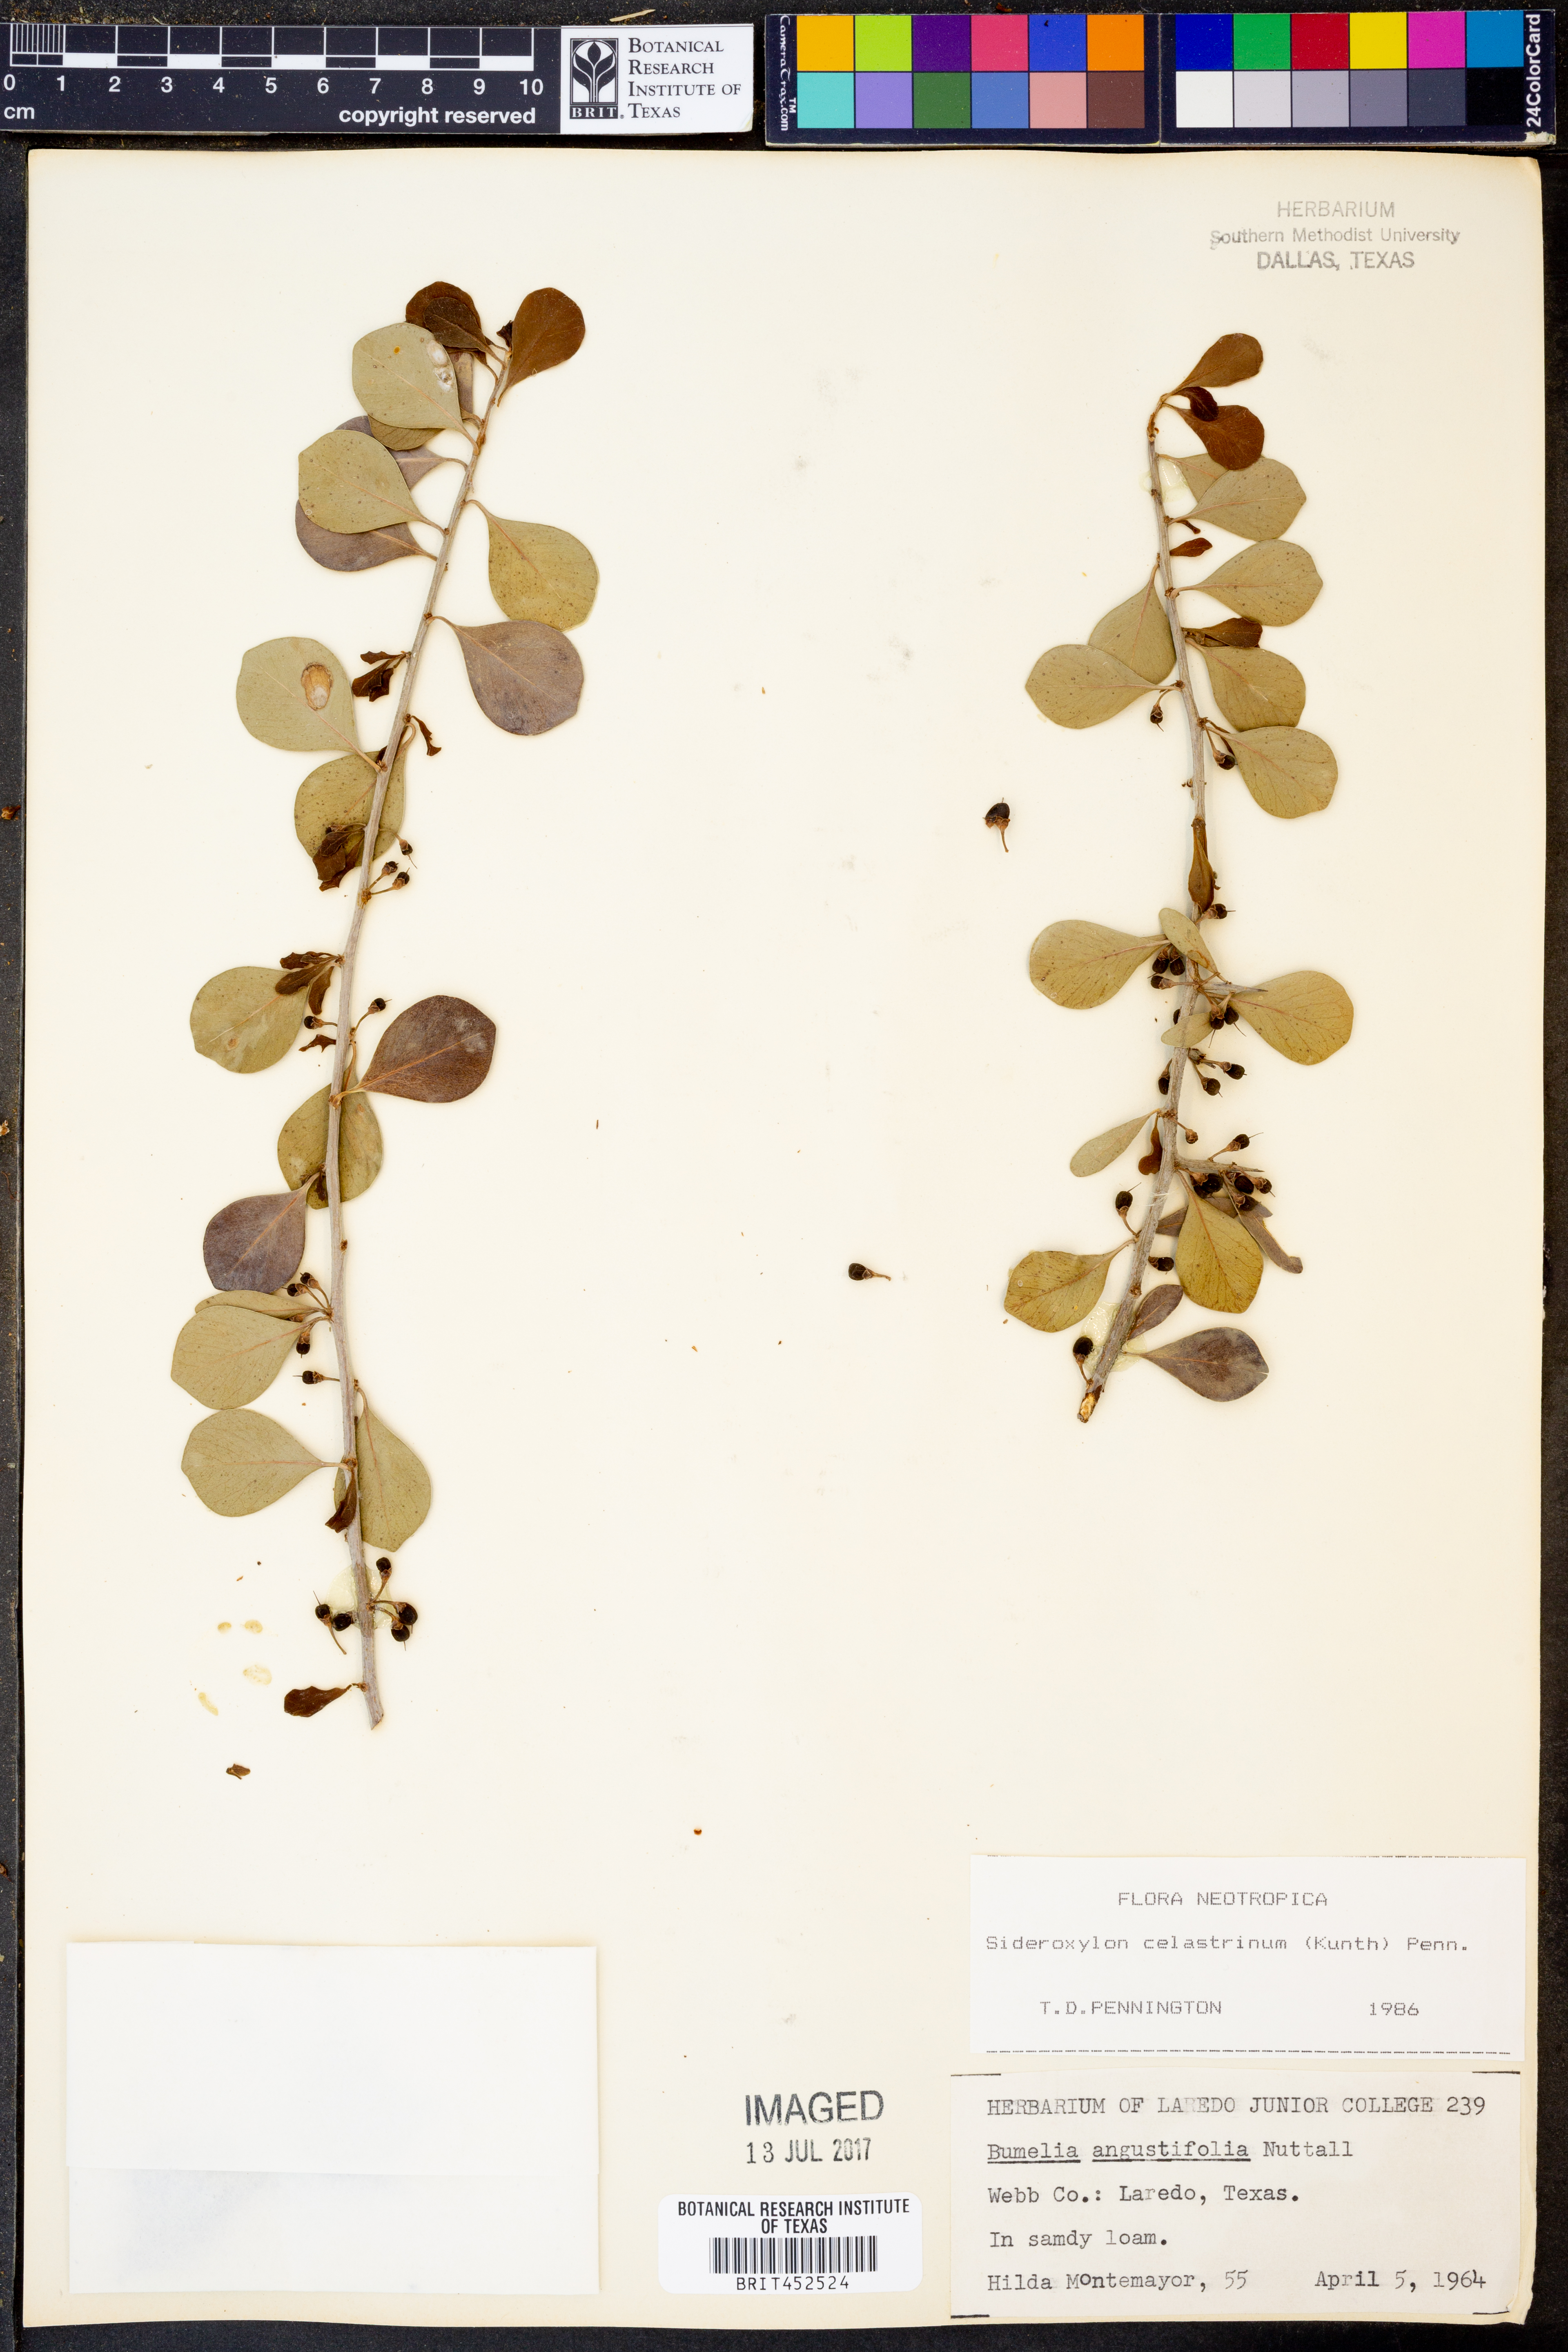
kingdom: Plantae
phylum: Tracheophyta
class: Magnoliopsida
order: Ericales
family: Sapotaceae
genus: Sideroxylon
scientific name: Sideroxylon celastrinum
